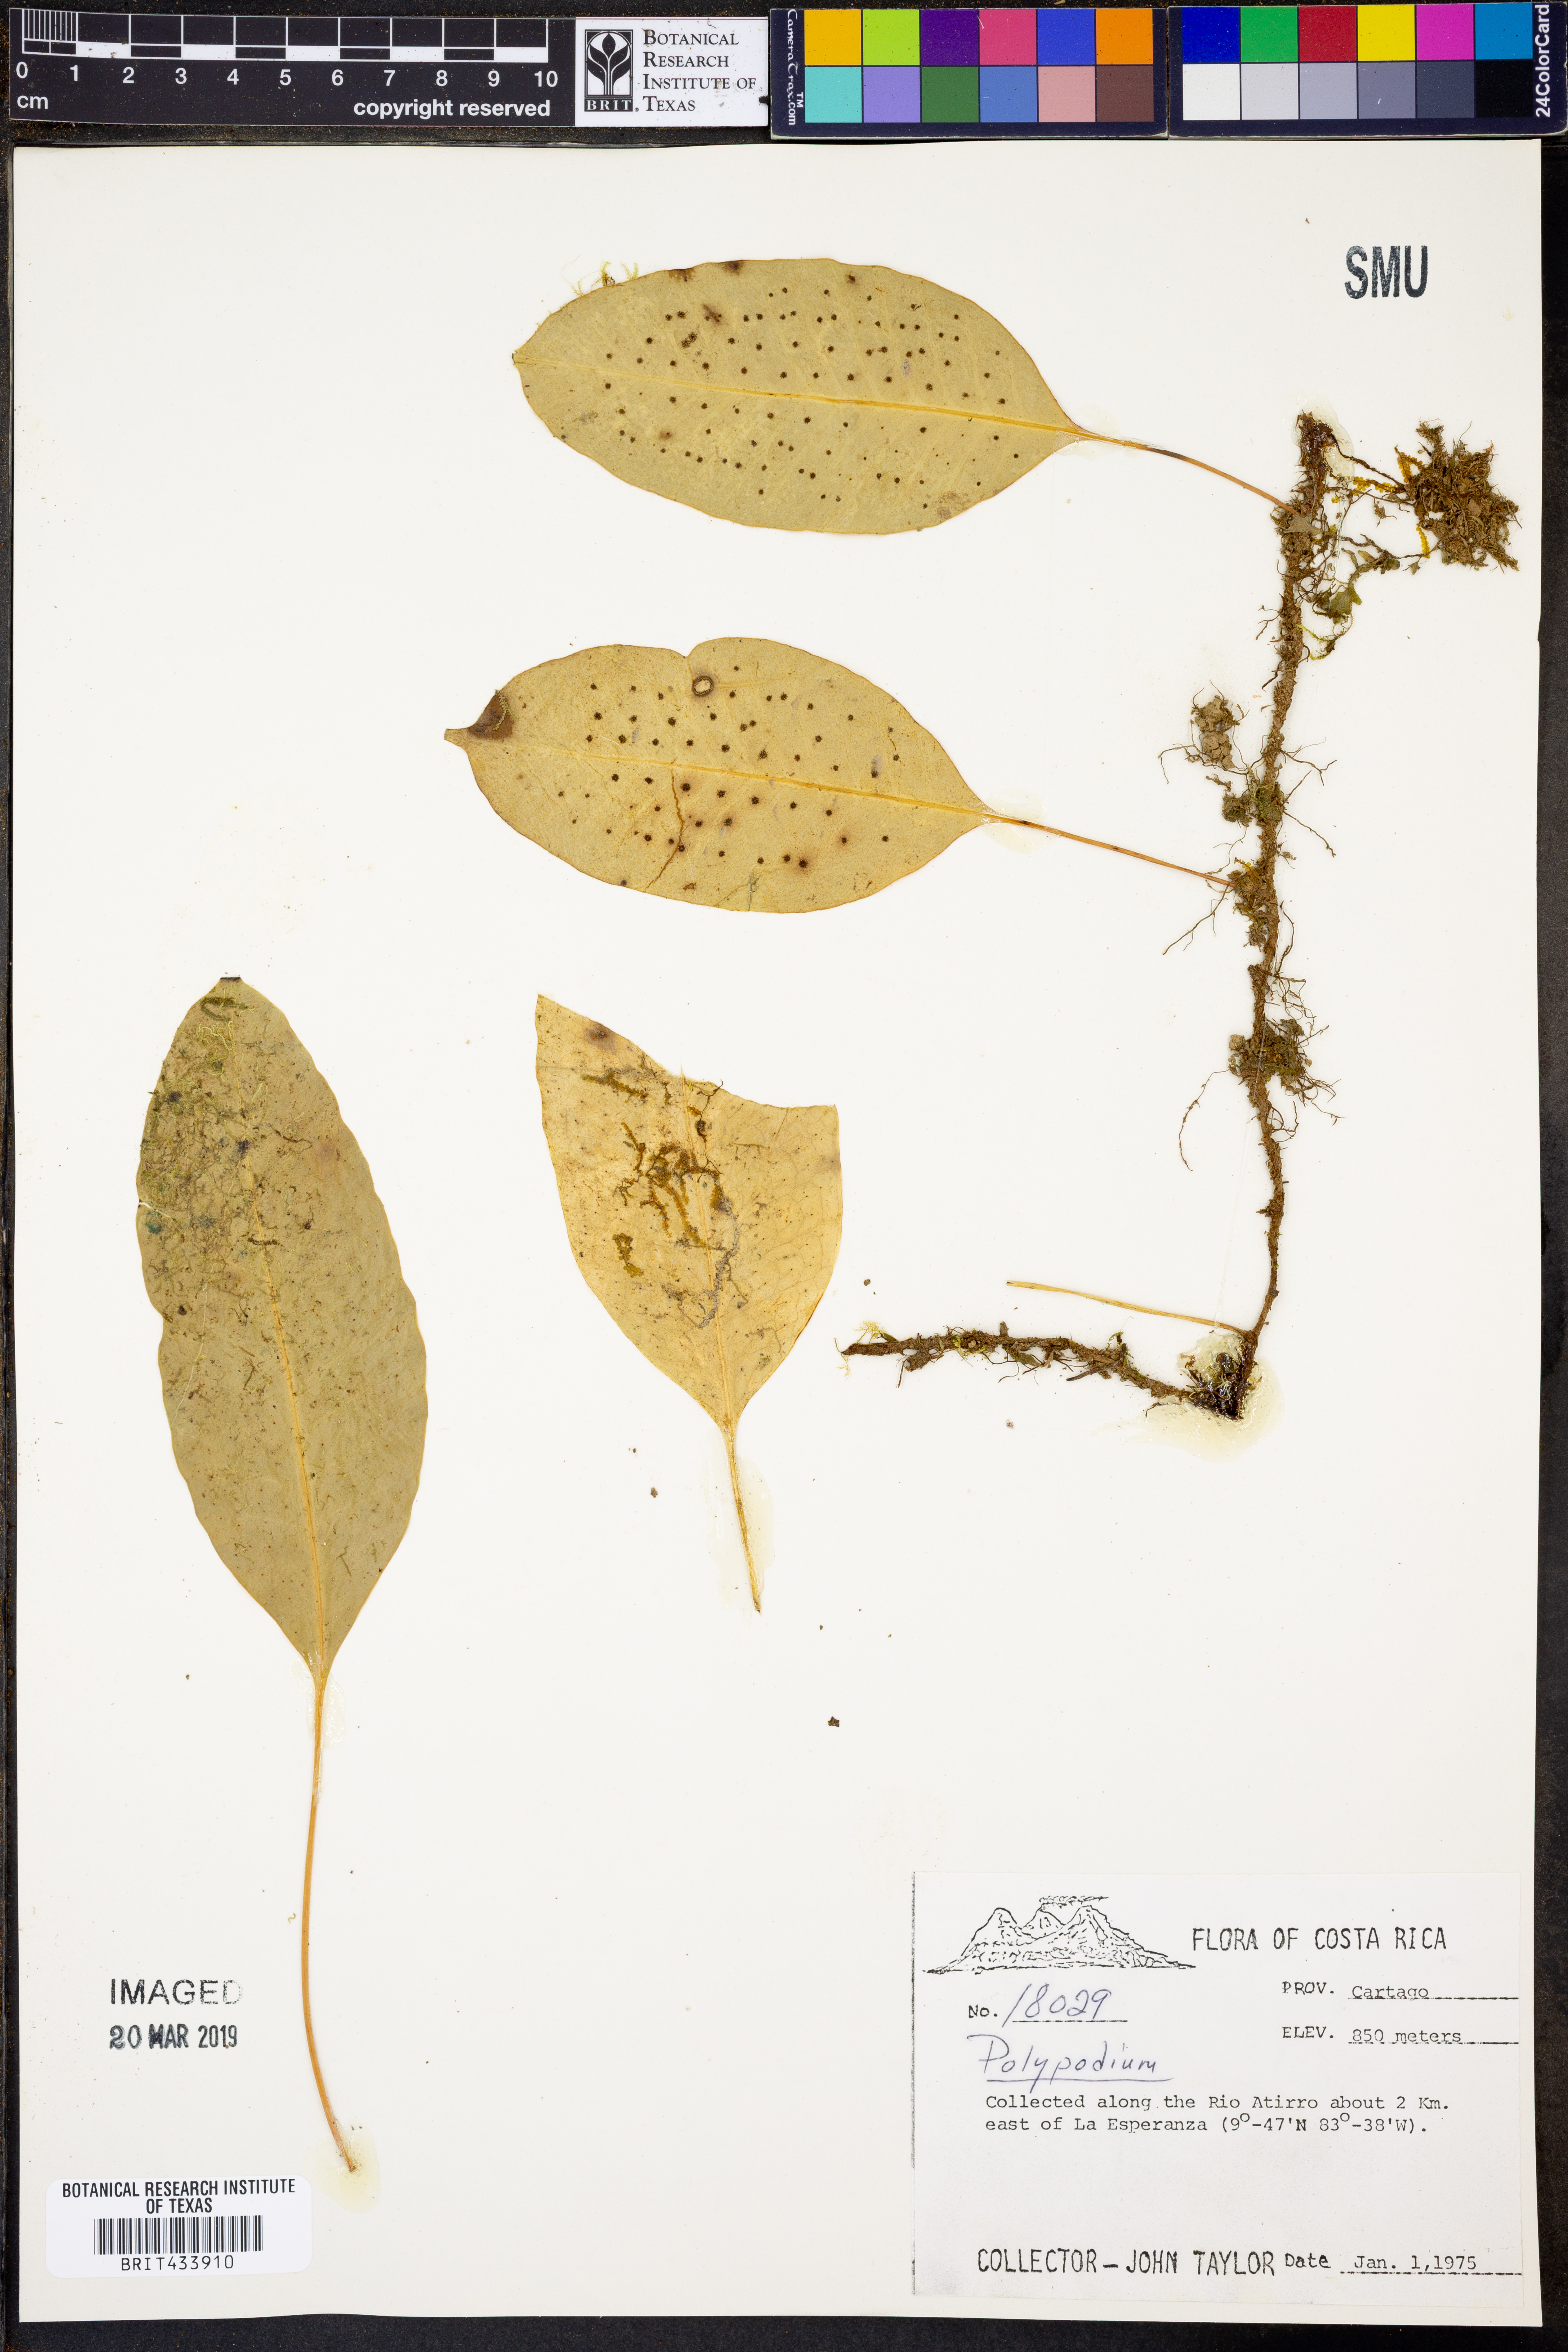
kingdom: Plantae
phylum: Tracheophyta
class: Polypodiopsida
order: Polypodiales
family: Polypodiaceae
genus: Polypodium
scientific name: Polypodium
